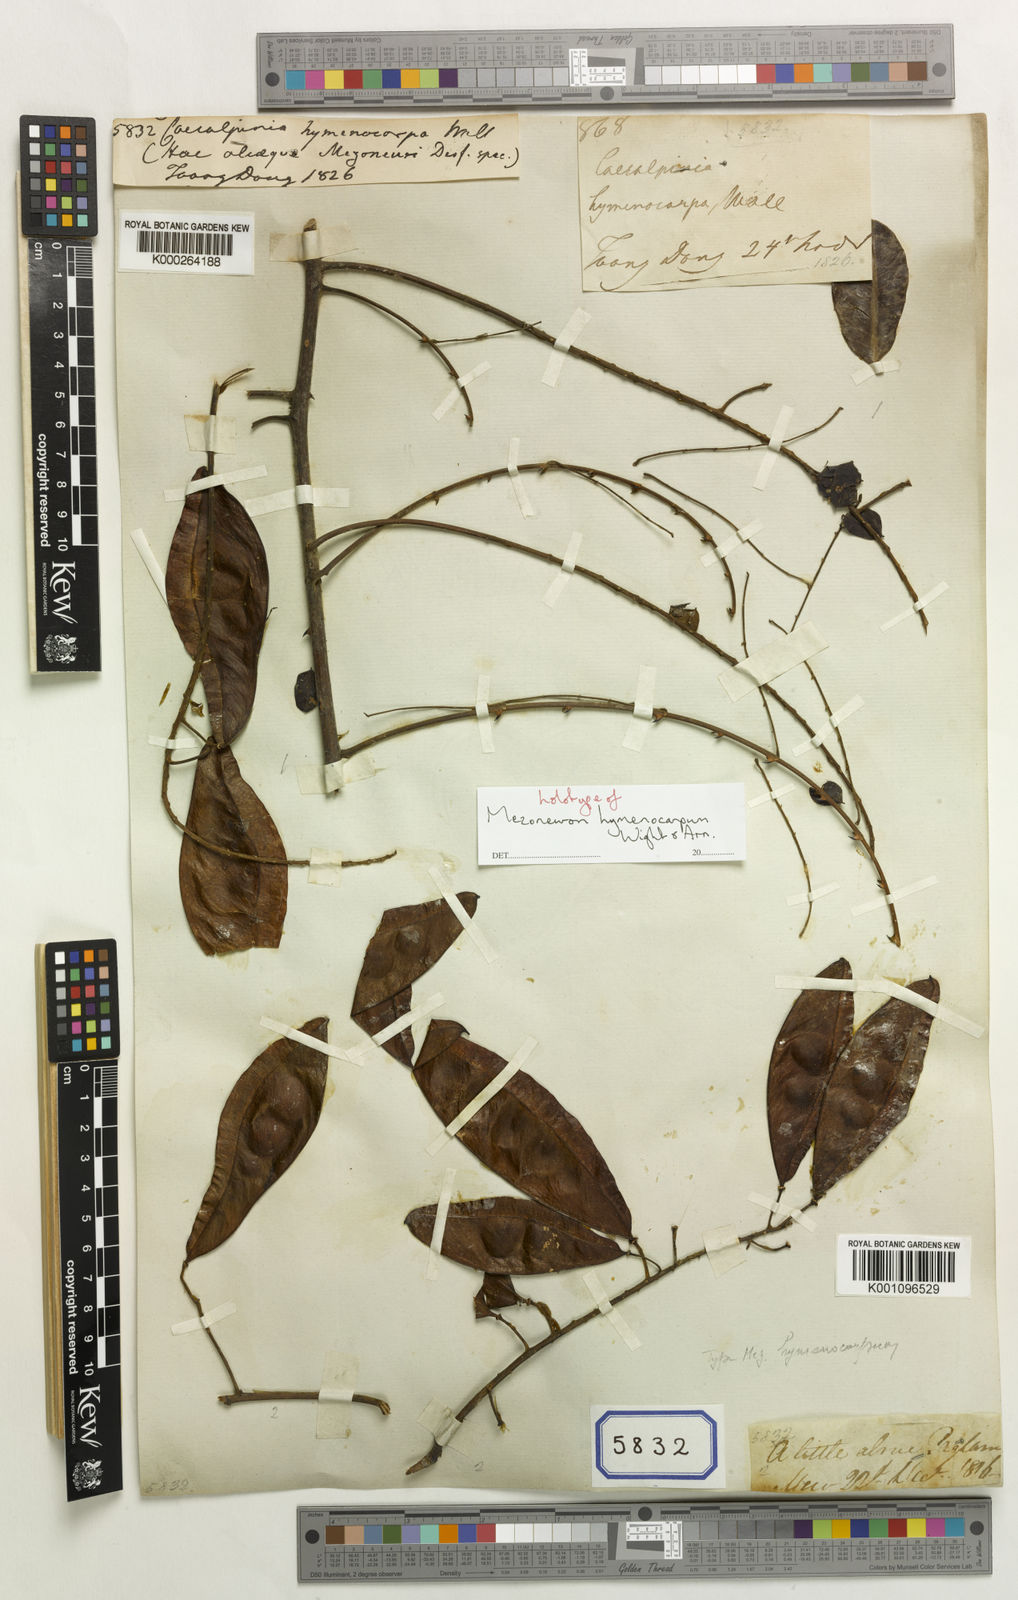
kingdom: Plantae
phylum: Tracheophyta
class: Magnoliopsida
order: Fabales
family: Fabaceae
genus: Caesalpinia
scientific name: Caesalpinia
